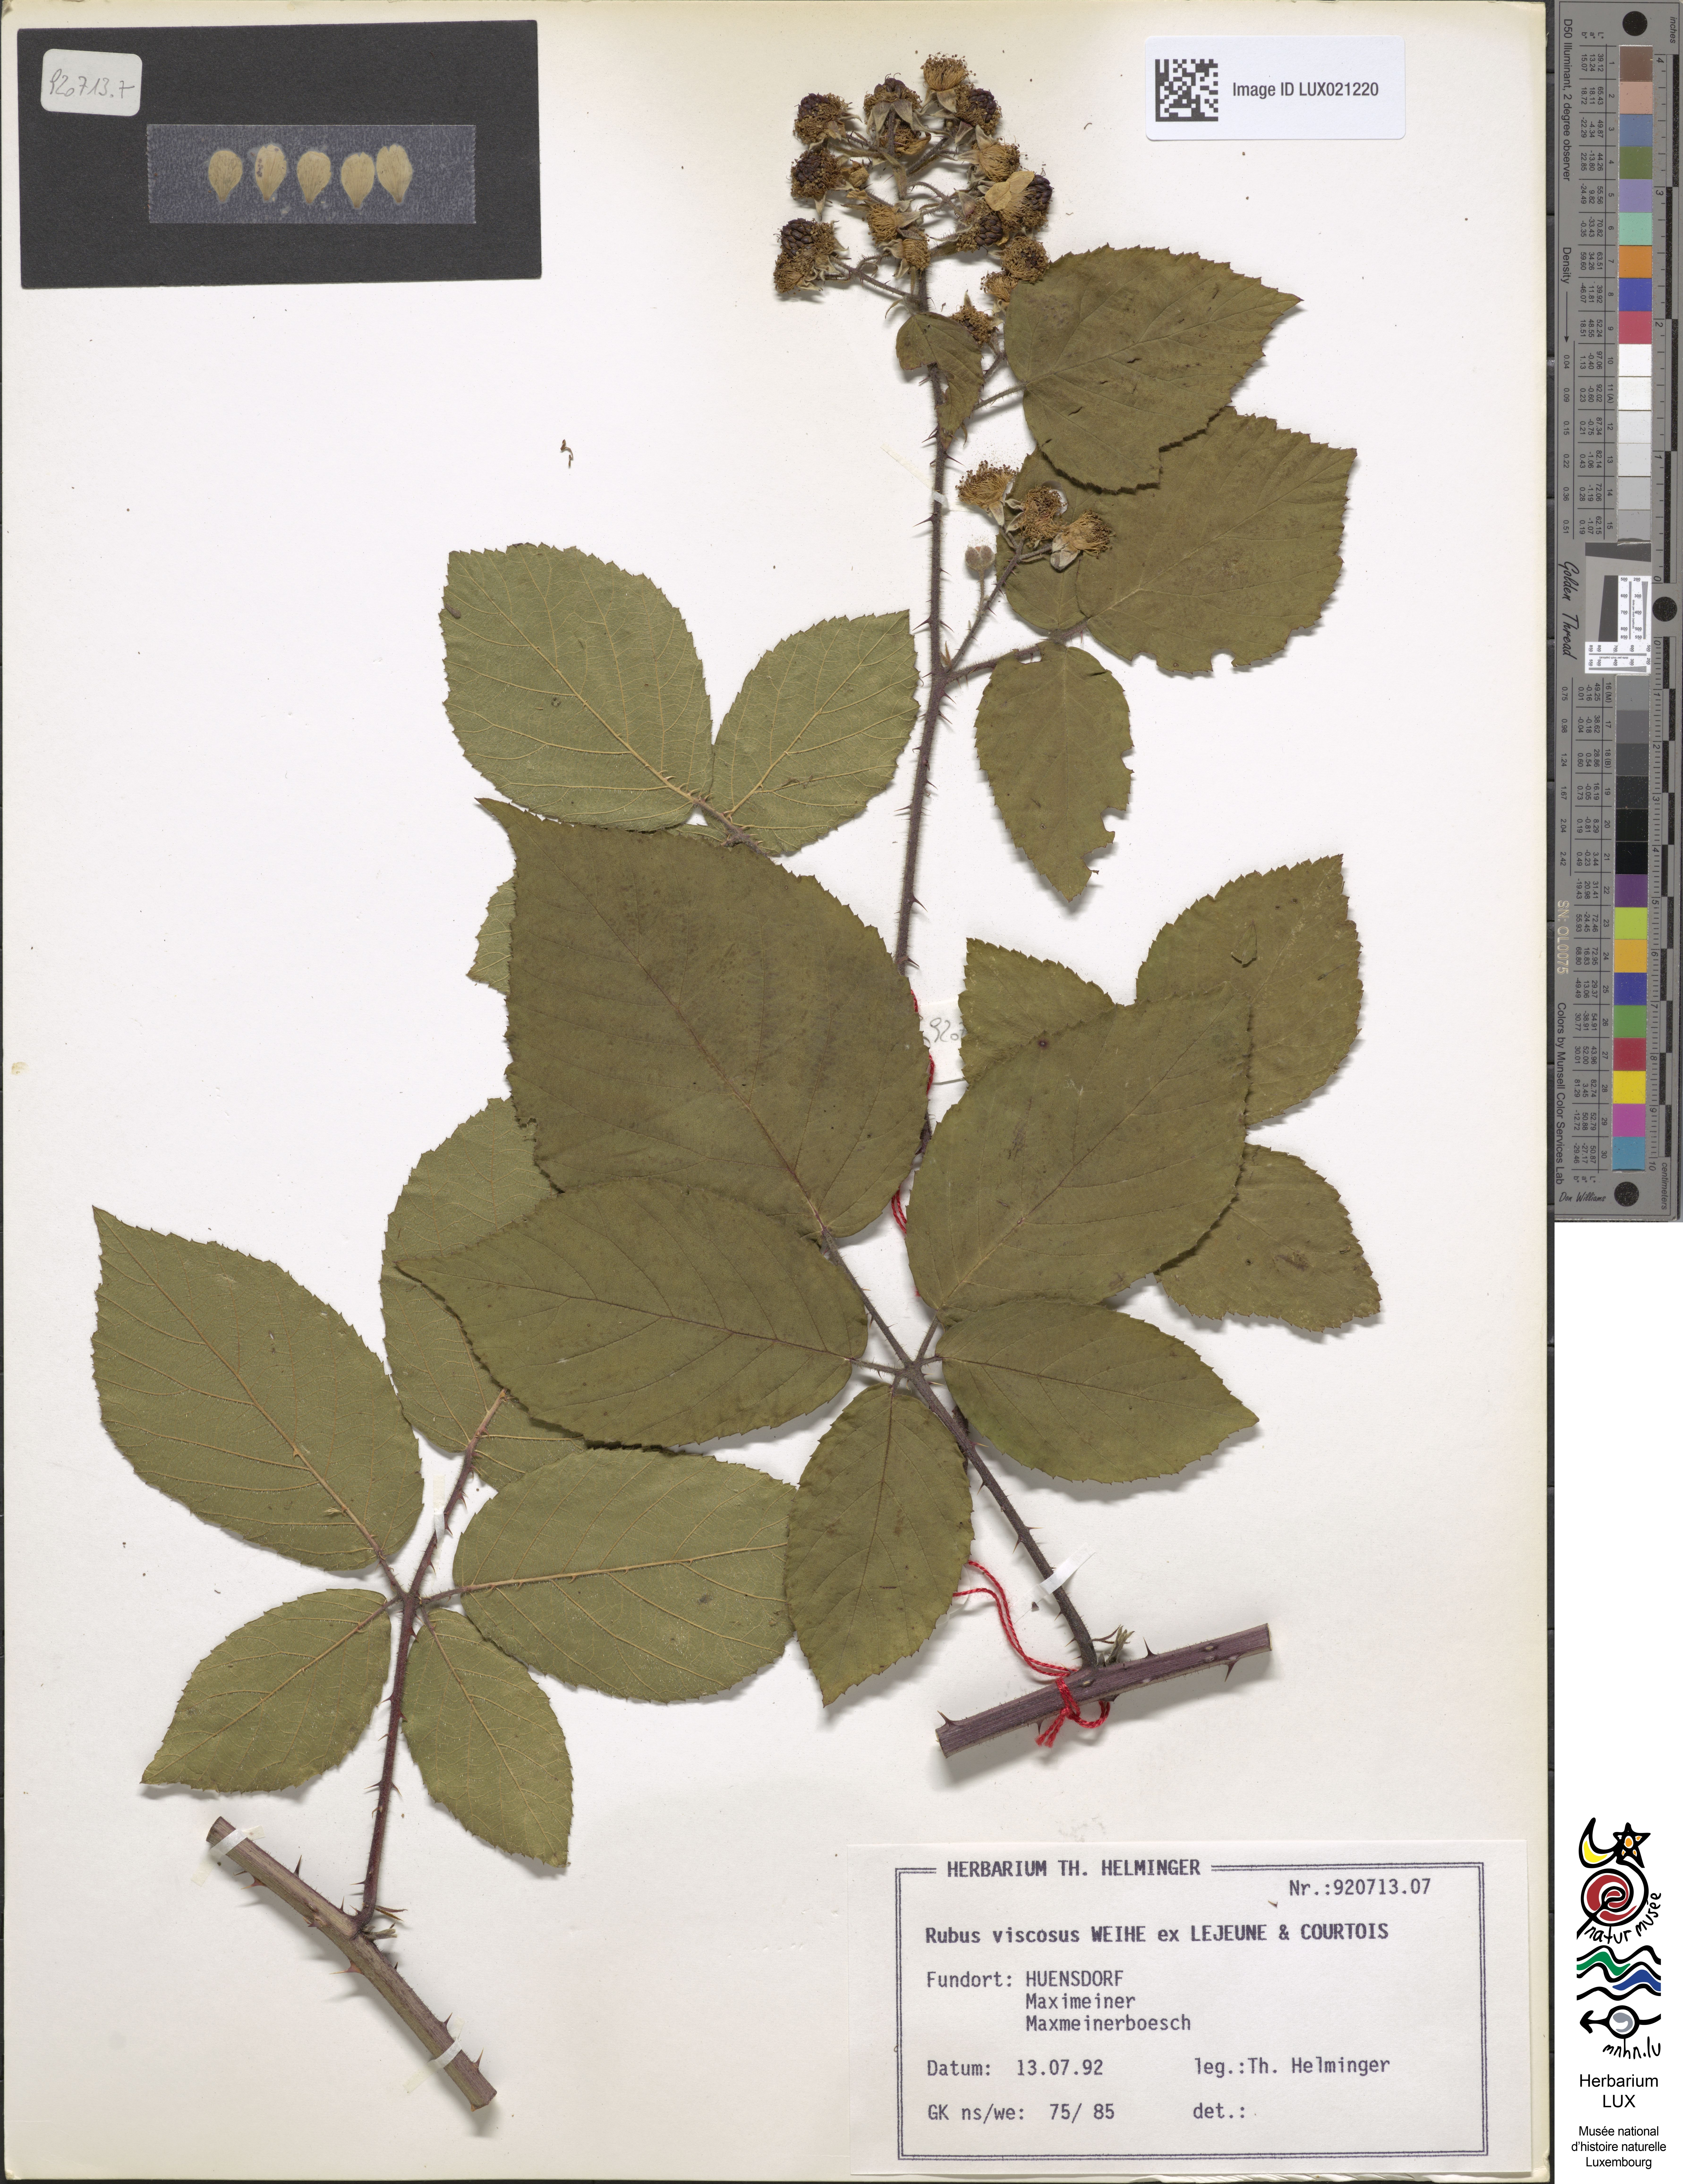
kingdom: Plantae
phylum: Tracheophyta
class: Magnoliopsida
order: Rosales
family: Rosaceae
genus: Rubus
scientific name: Rubus viscosus
